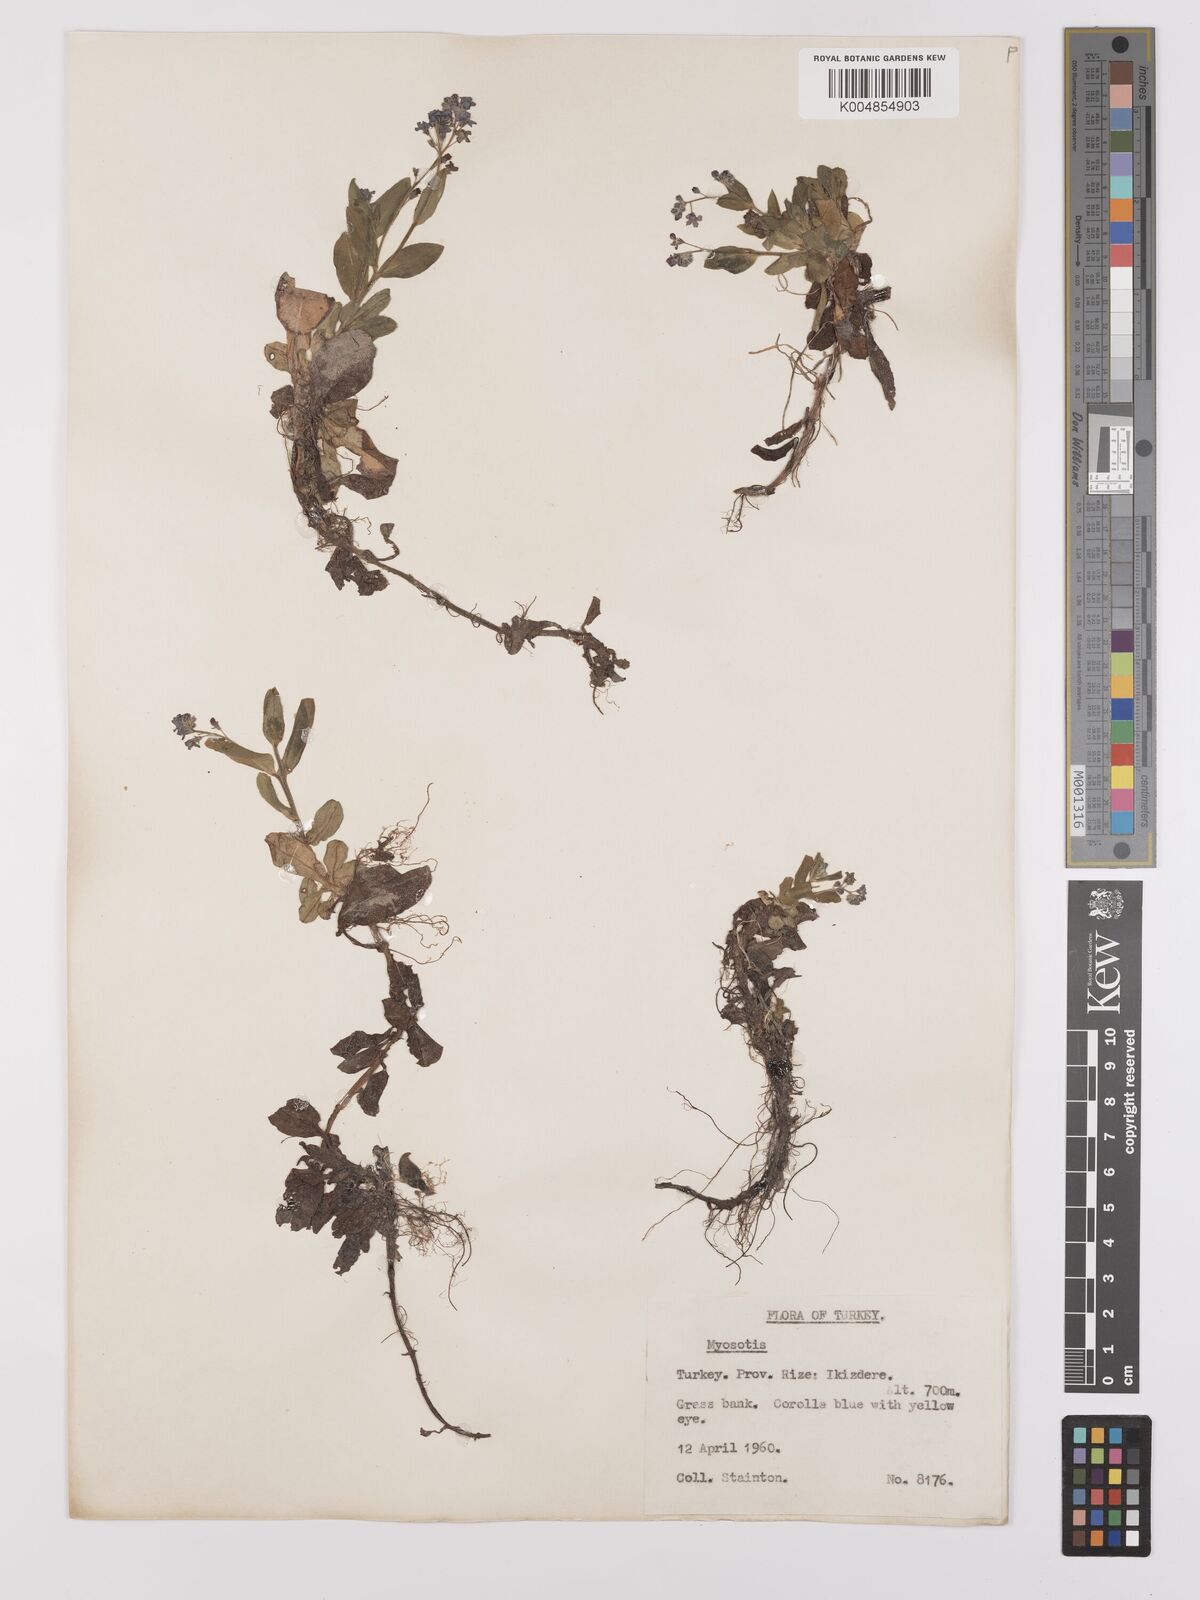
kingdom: Plantae
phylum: Tracheophyta
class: Magnoliopsida
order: Boraginales
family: Boraginaceae
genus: Myosotis
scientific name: Myosotis
